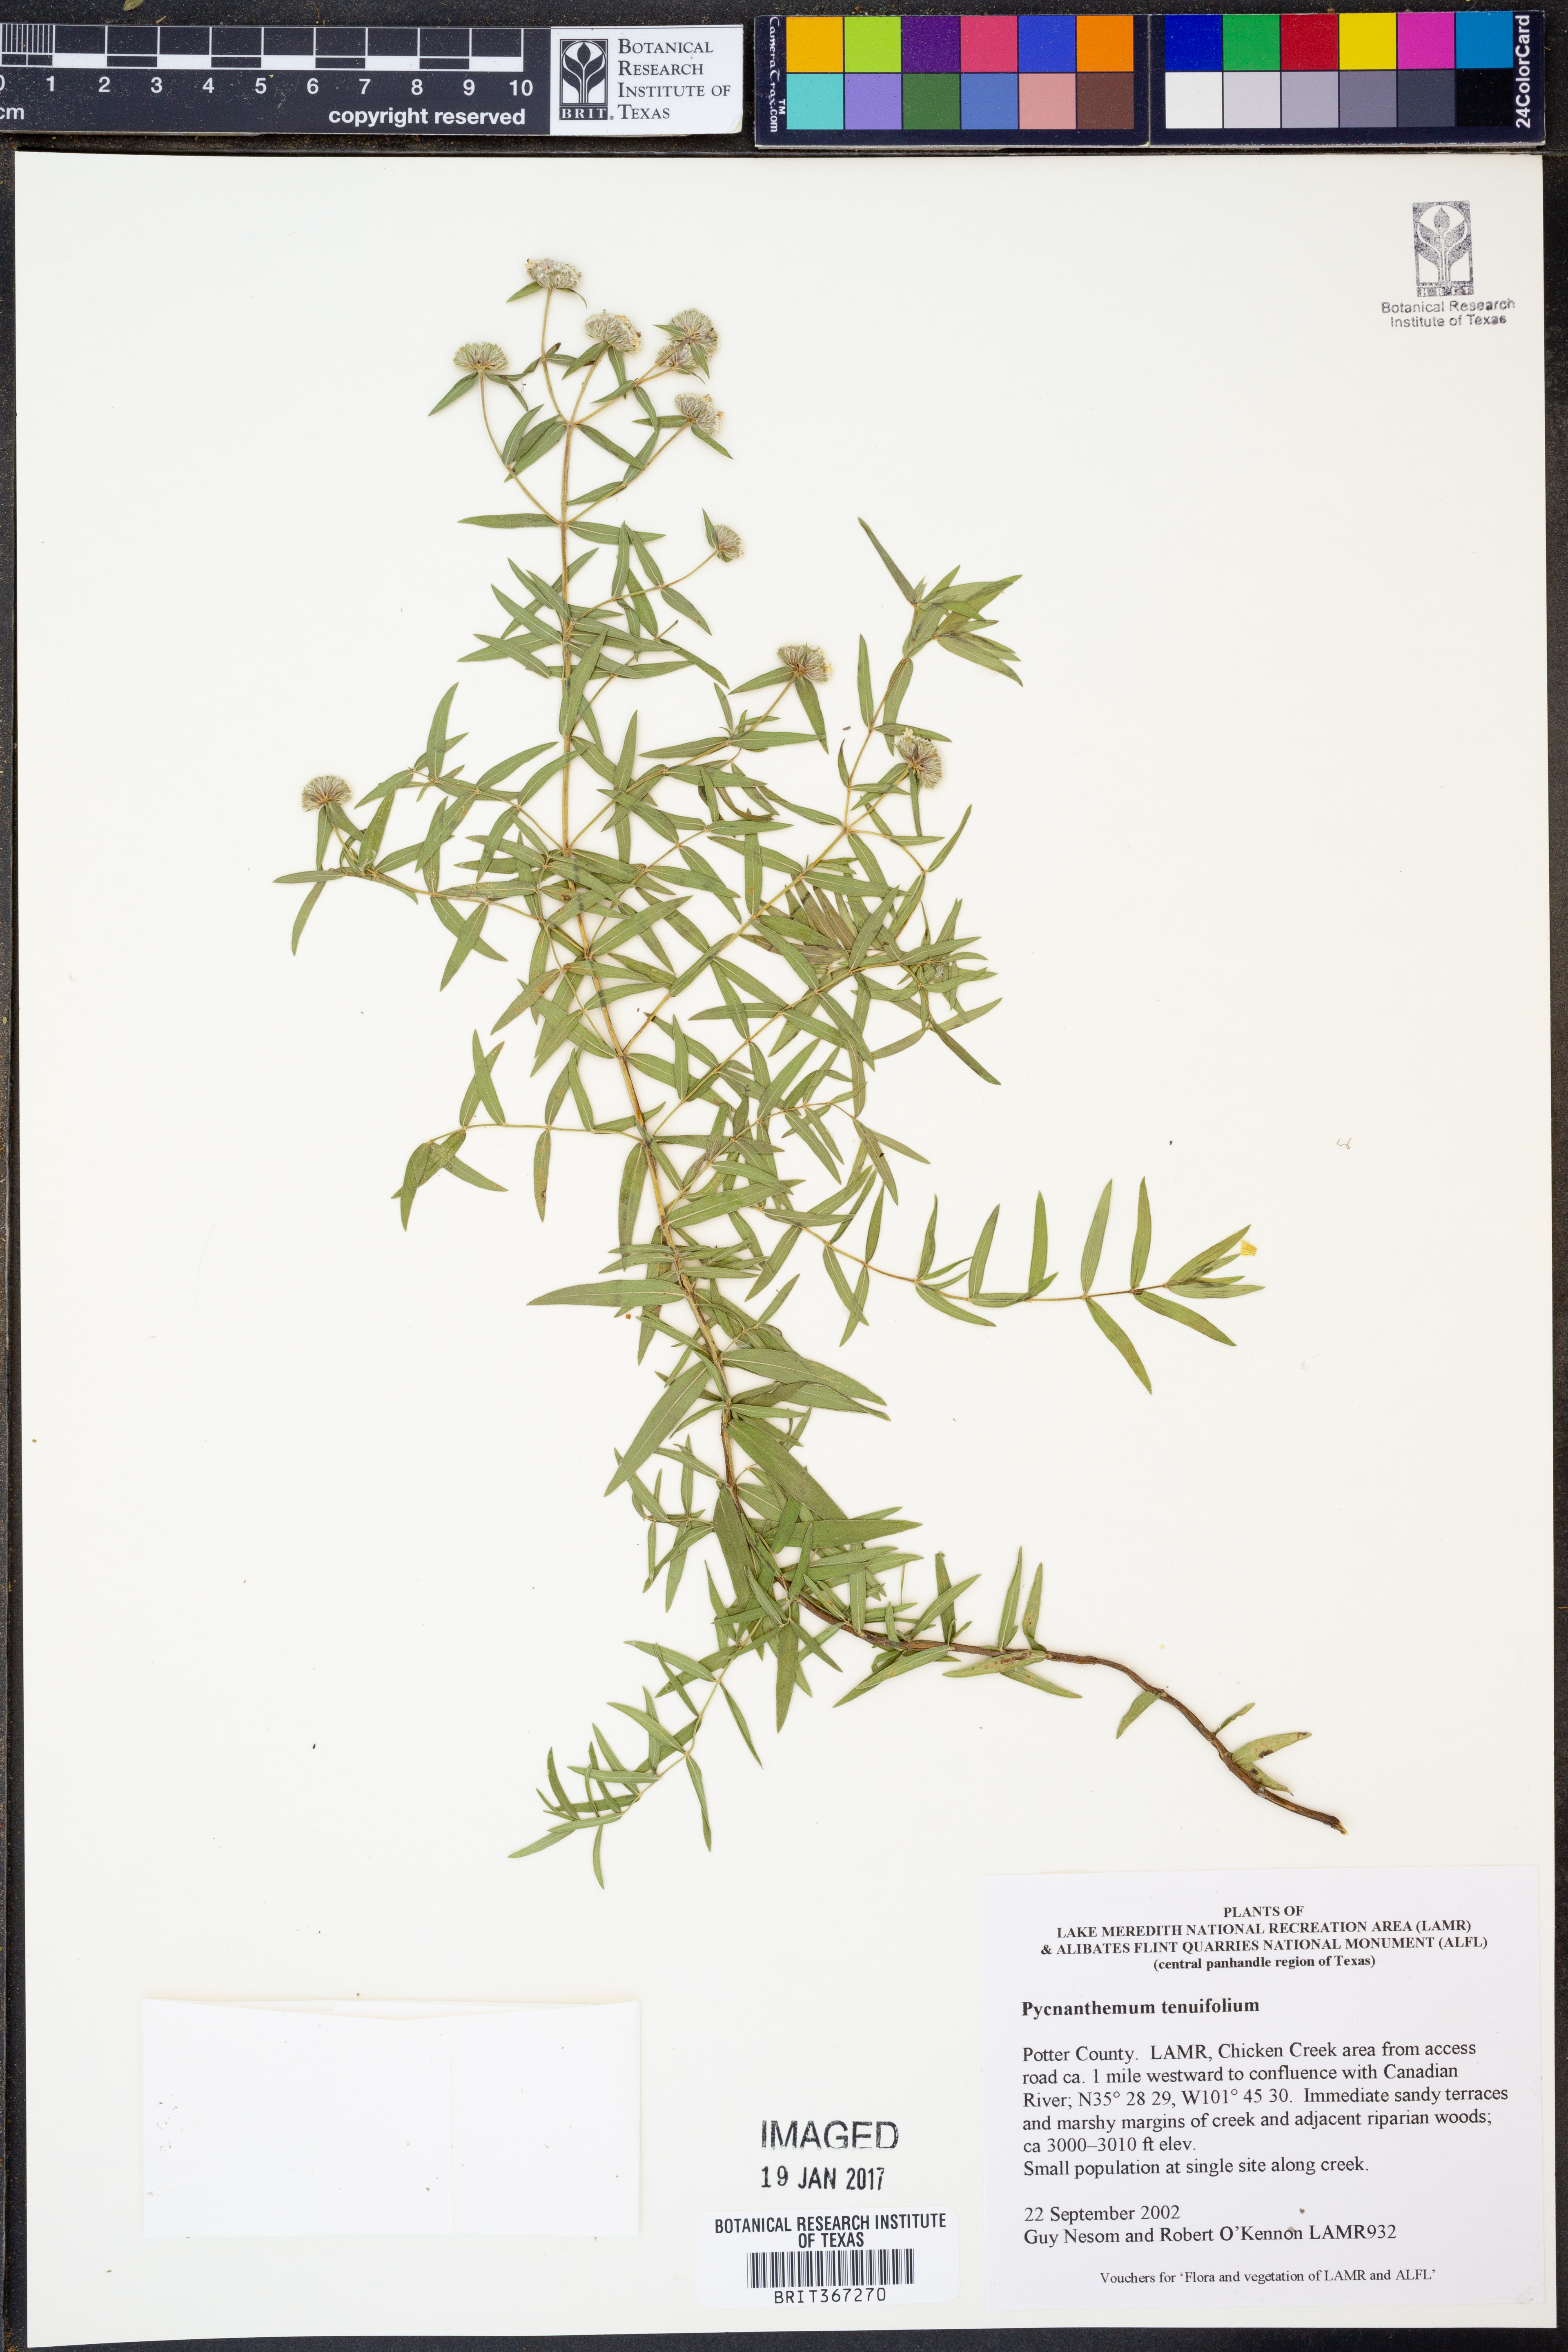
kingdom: Plantae
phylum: Tracheophyta
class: Magnoliopsida
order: Lamiales
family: Lamiaceae
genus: Pycnanthemum
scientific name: Pycnanthemum tenuifolium
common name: Narrow-leaf mountain-mint
